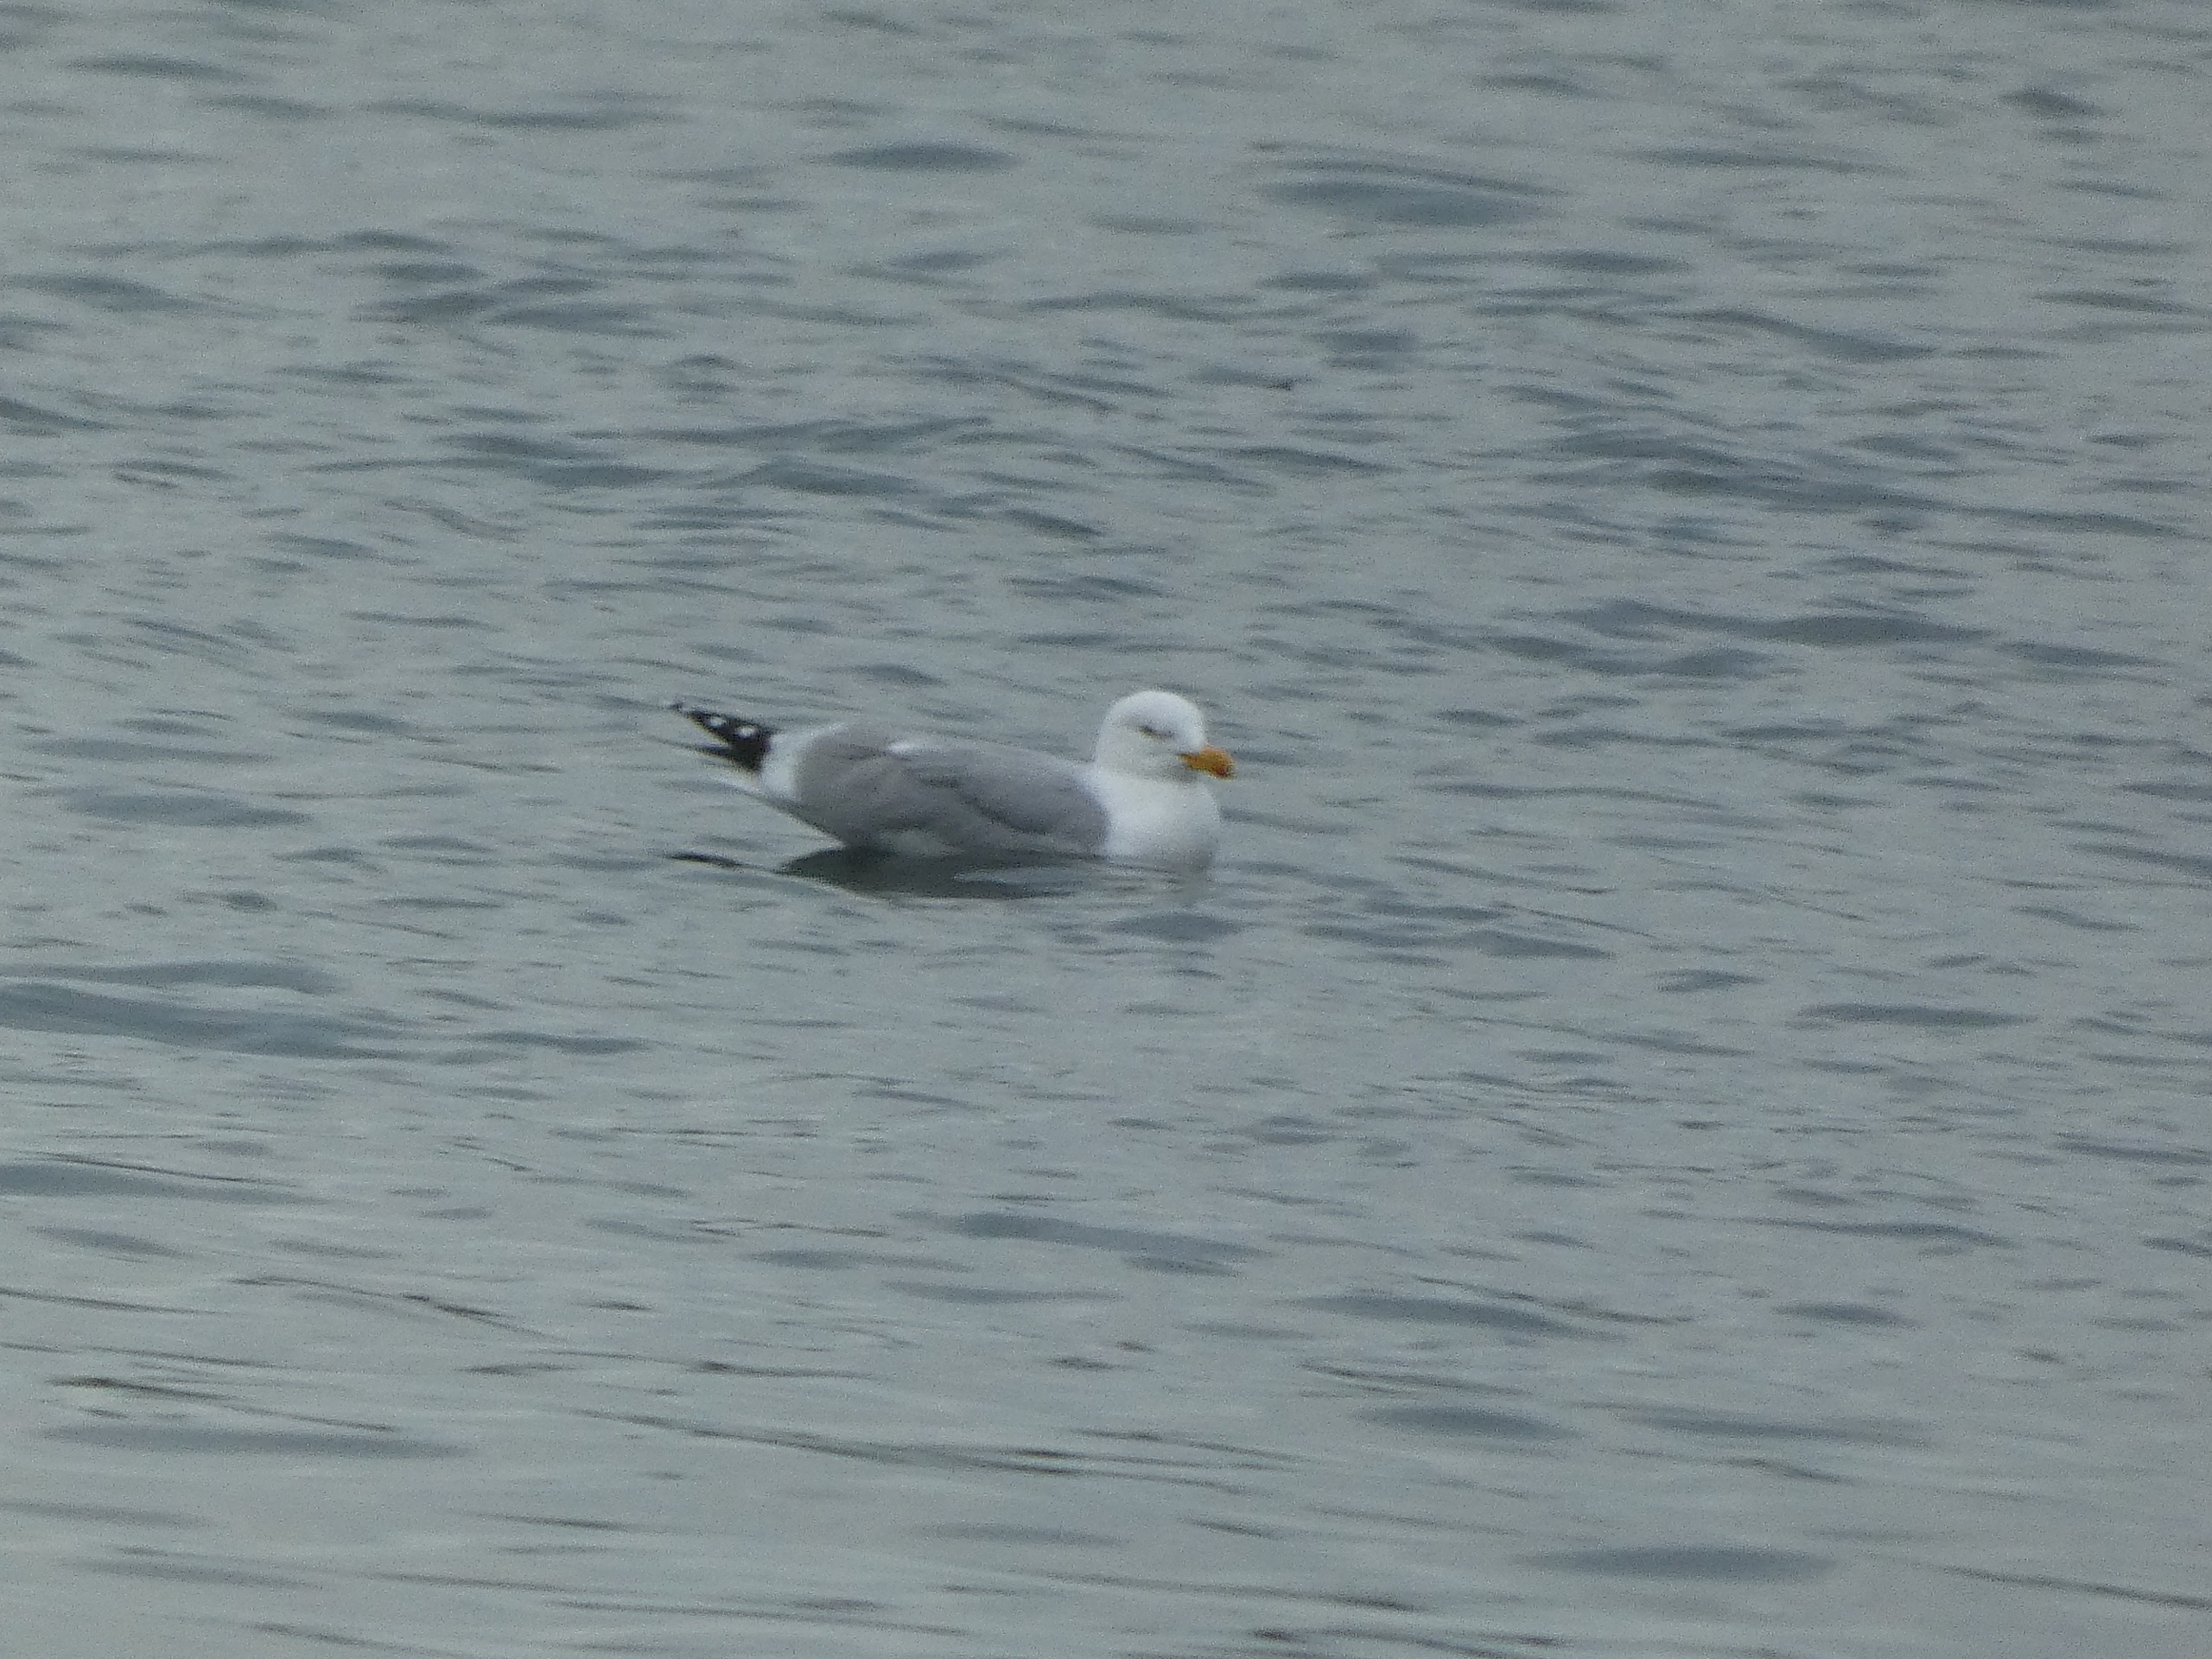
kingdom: Animalia
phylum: Chordata
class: Aves
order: Charadriiformes
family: Laridae
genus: Larus
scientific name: Larus argentatus
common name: Sølvmåge
